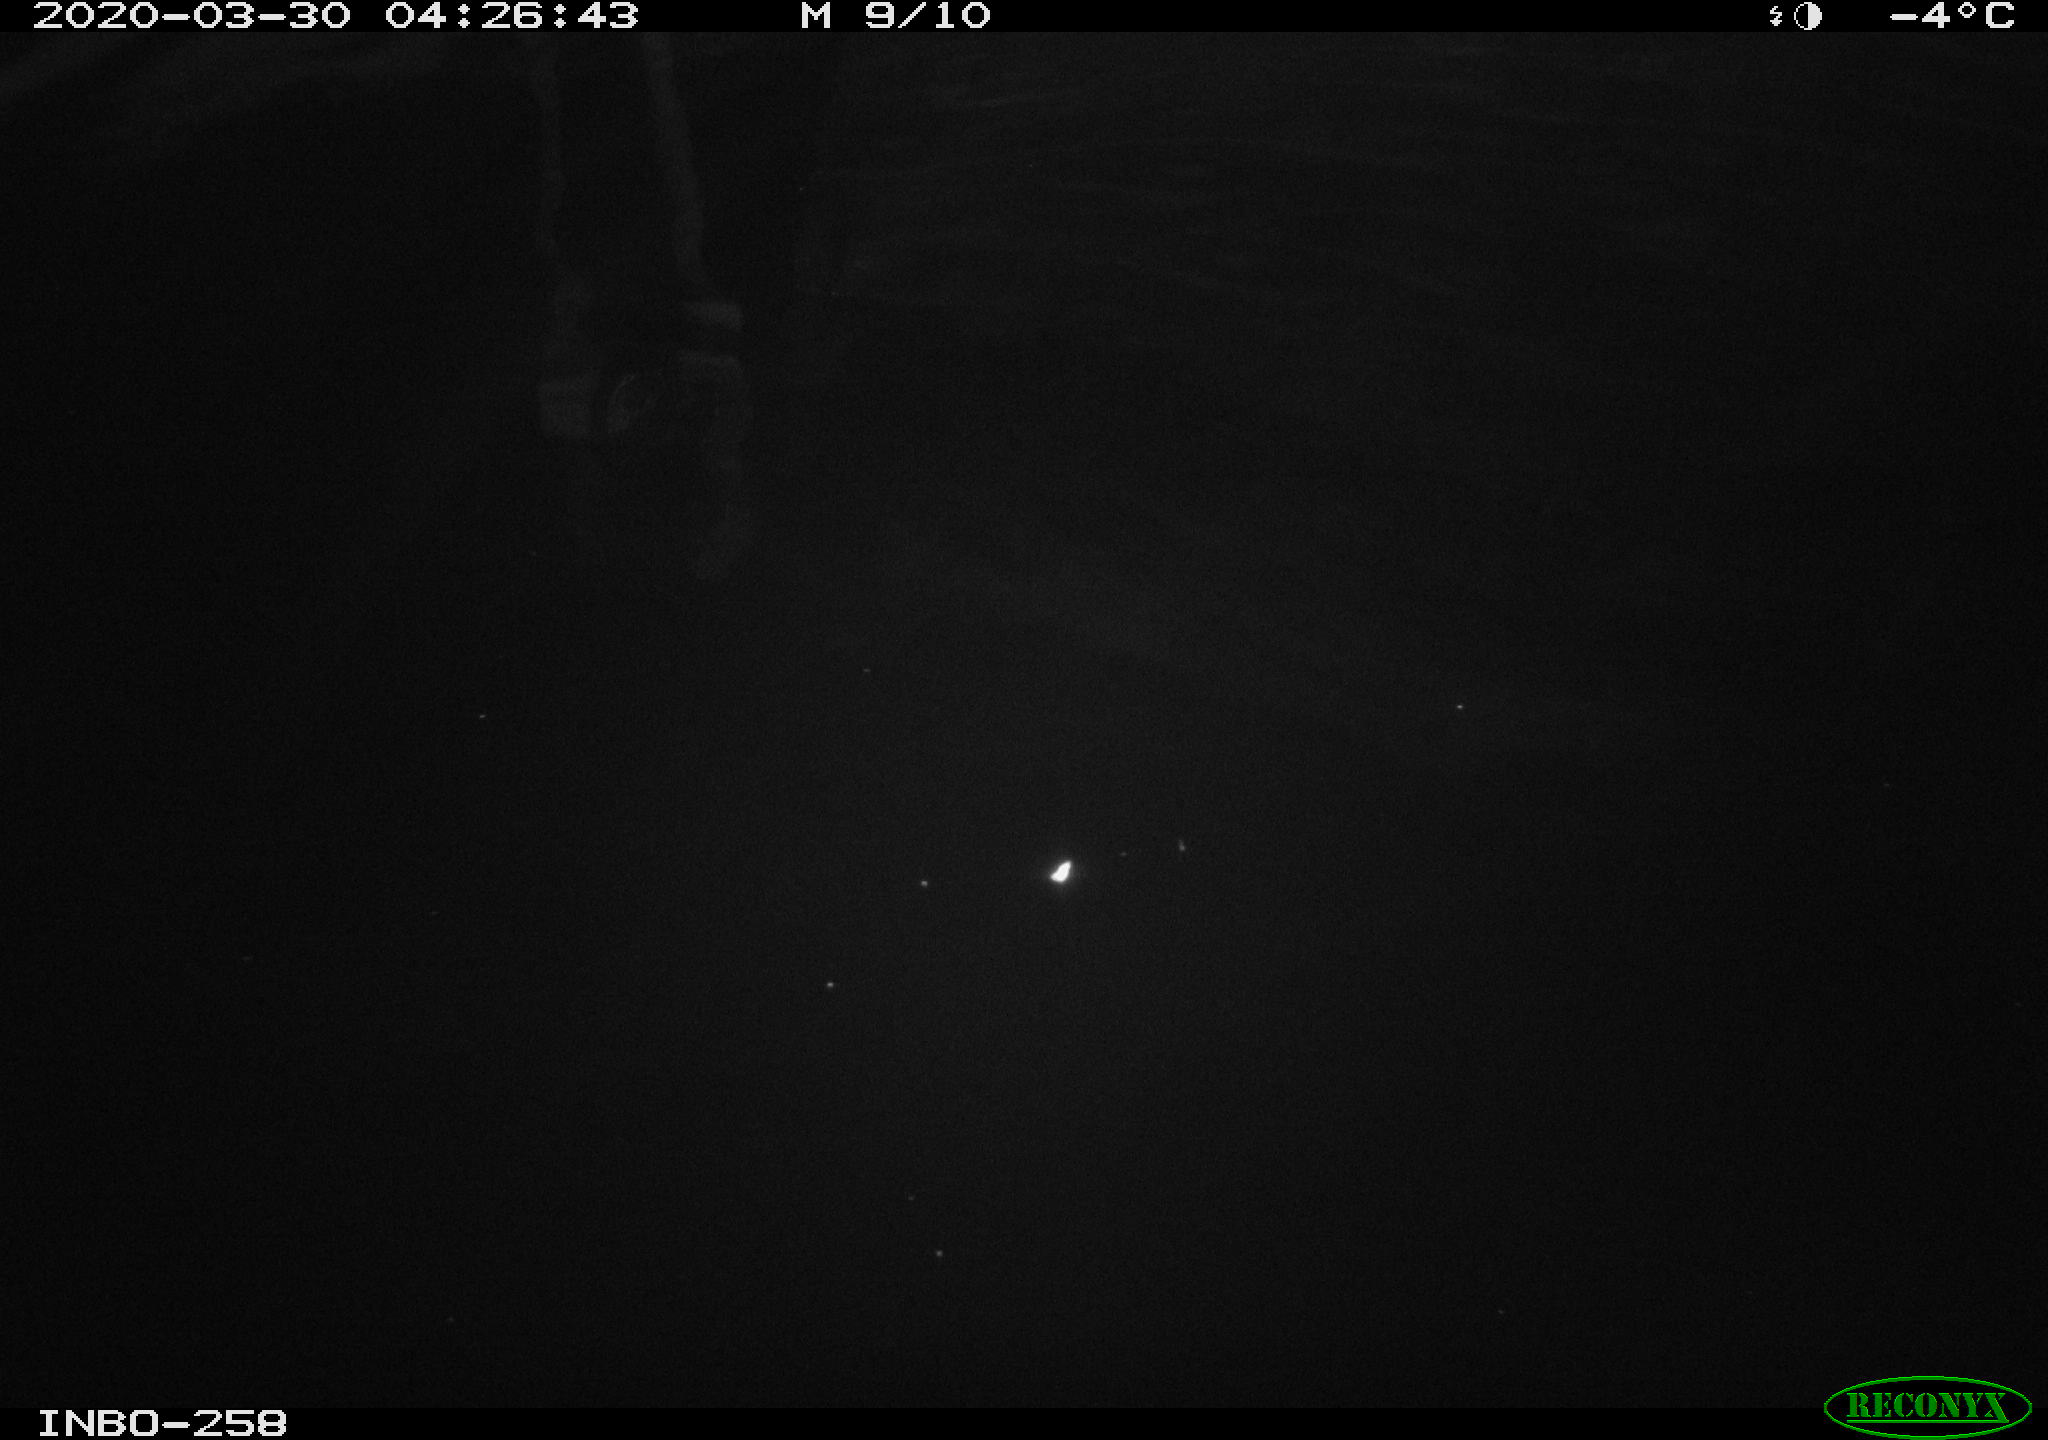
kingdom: Animalia
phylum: Chordata
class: Aves
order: Anseriformes
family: Anatidae
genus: Anas
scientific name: Anas platyrhynchos
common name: Mallard
